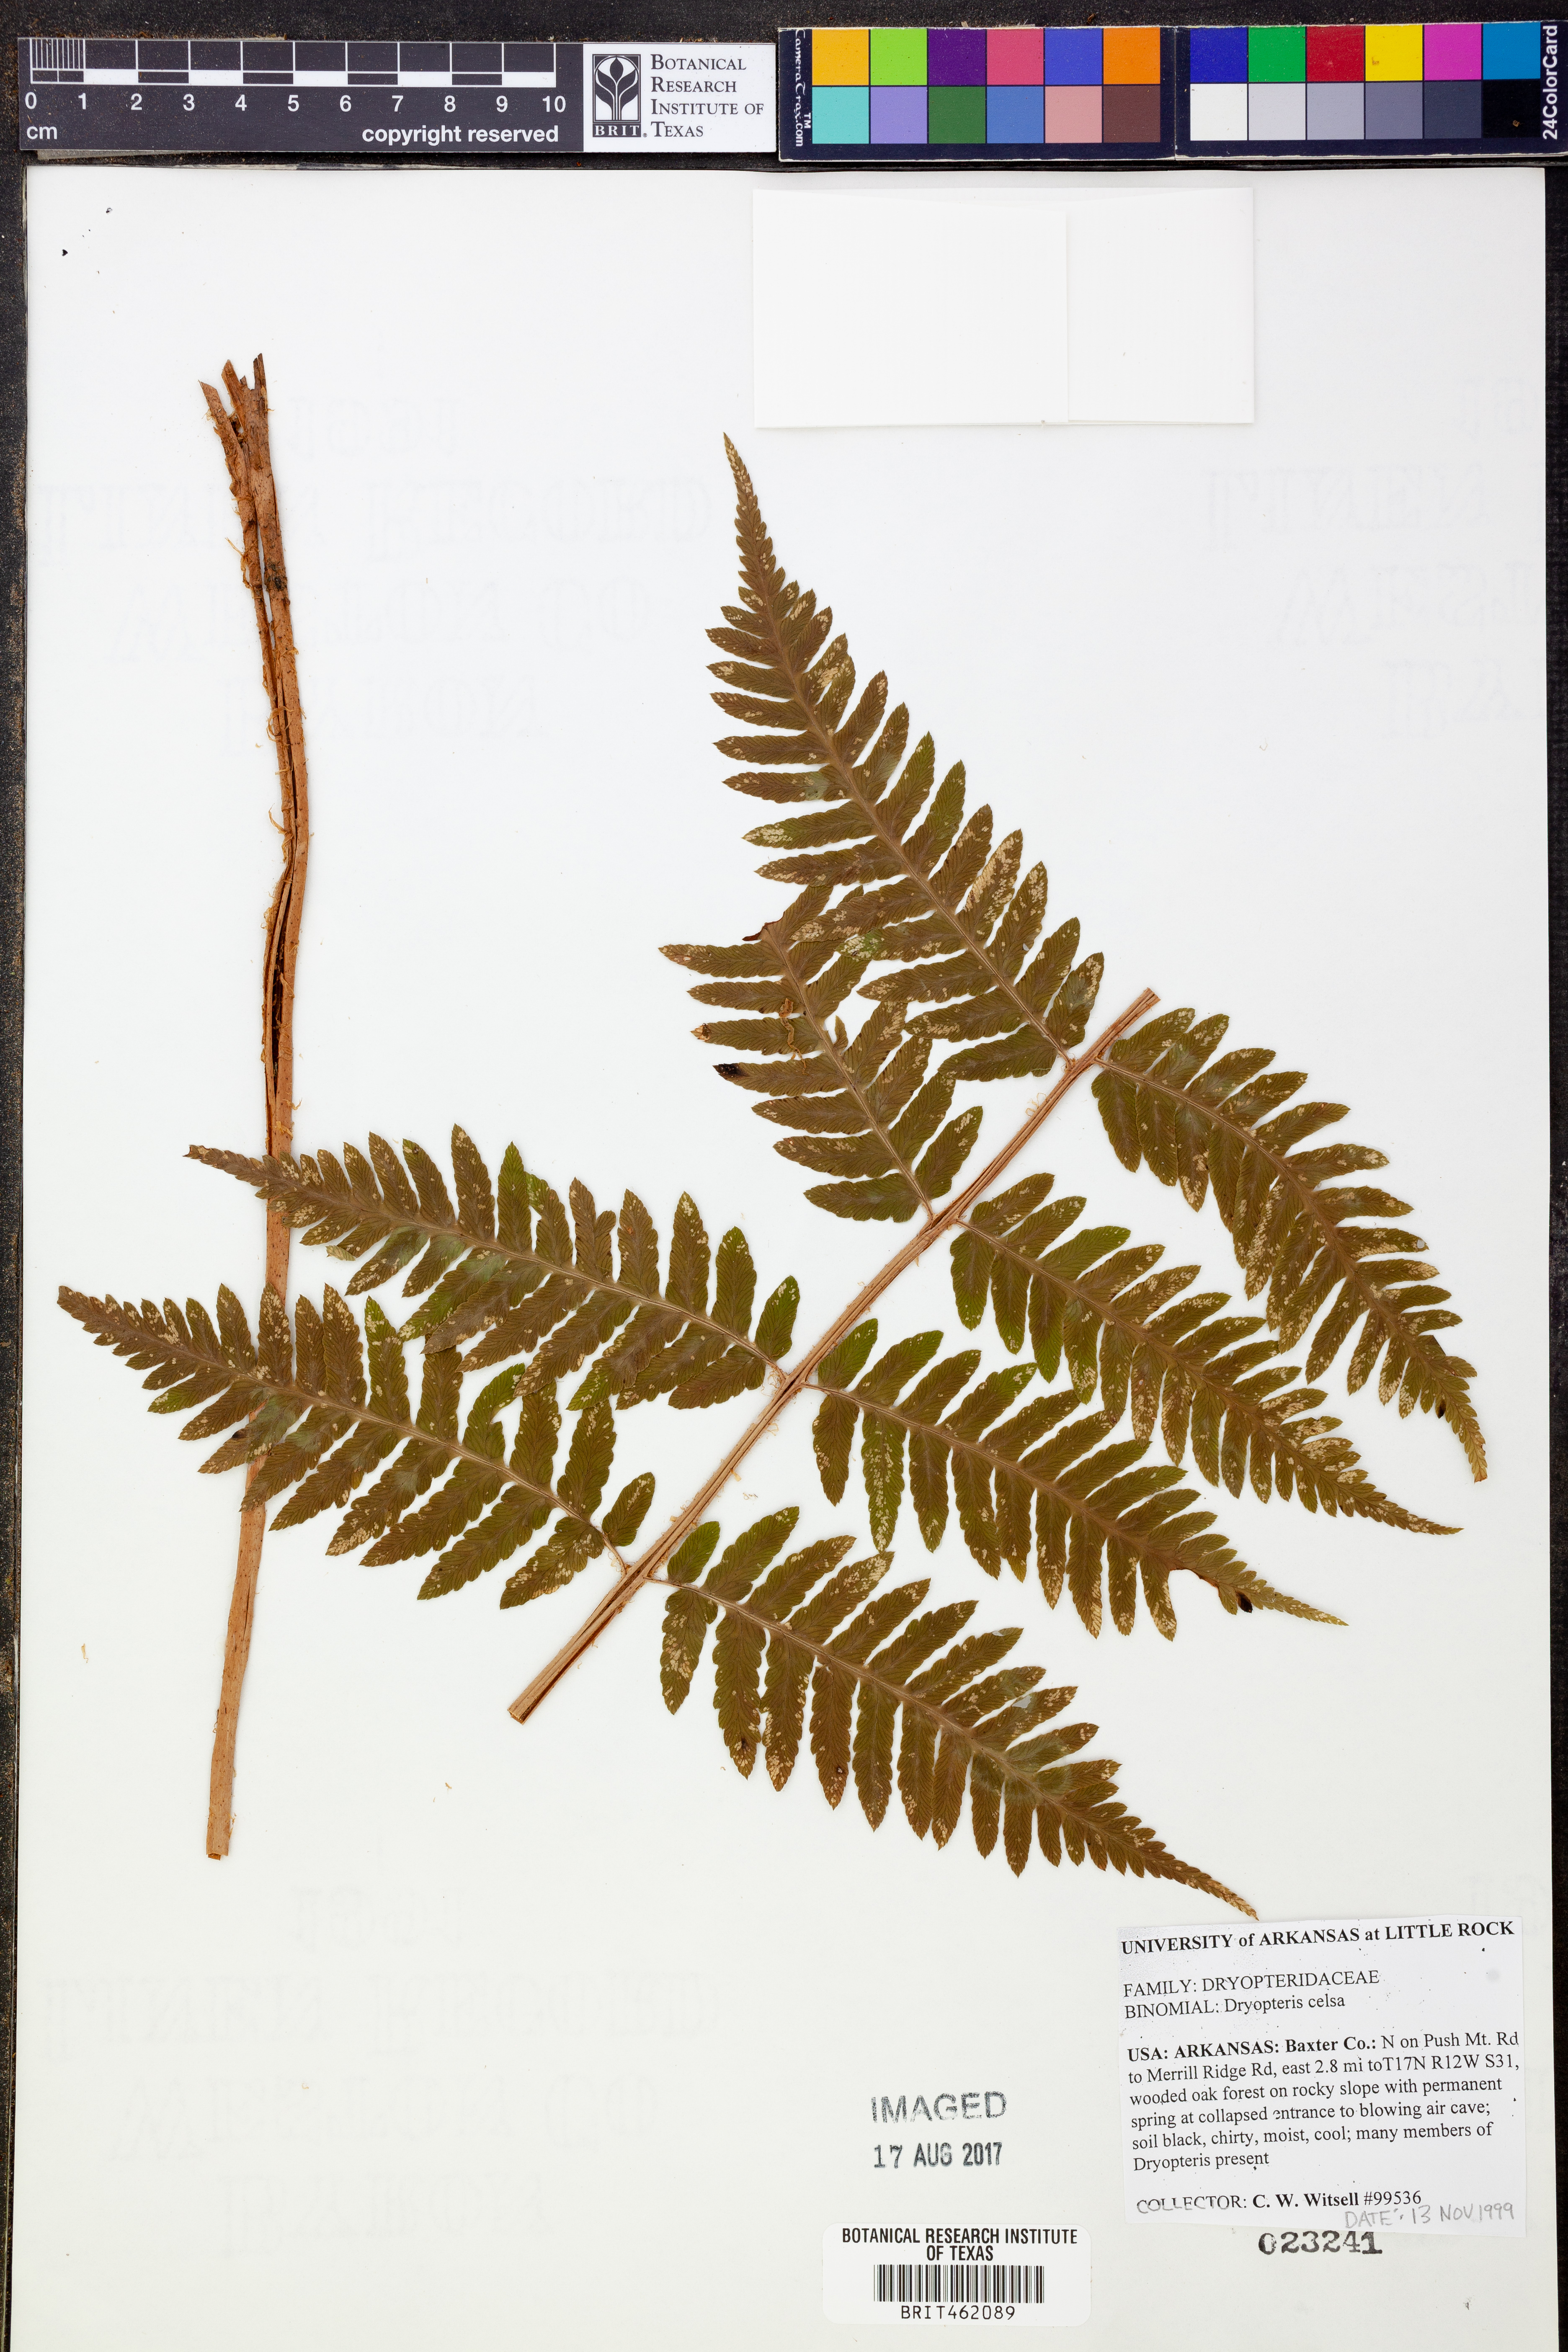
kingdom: Plantae
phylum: Tracheophyta
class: Polypodiopsida
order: Polypodiales
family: Dryopteridaceae
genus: Dryopteris
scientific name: Dryopteris celsa
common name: Log fern
